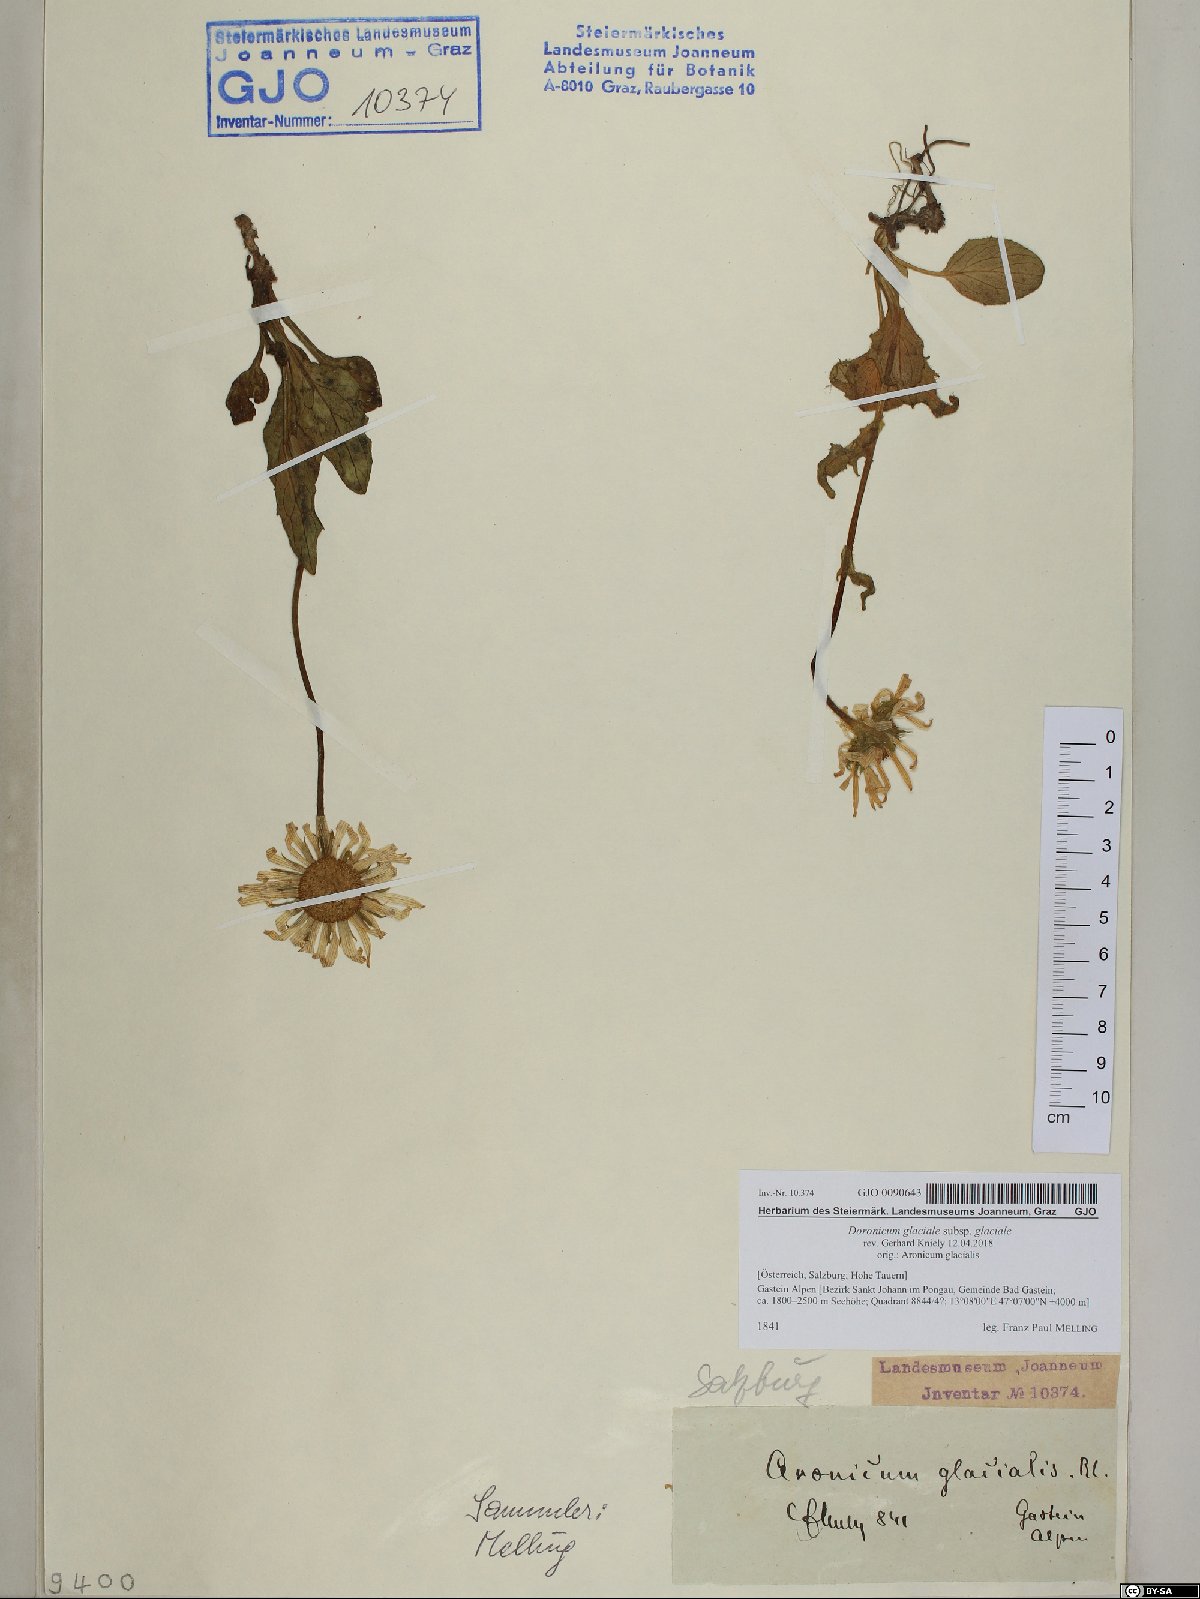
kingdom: Plantae
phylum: Tracheophyta
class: Magnoliopsida
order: Asterales
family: Asteraceae
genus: Doronicum
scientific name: Doronicum glaciale
